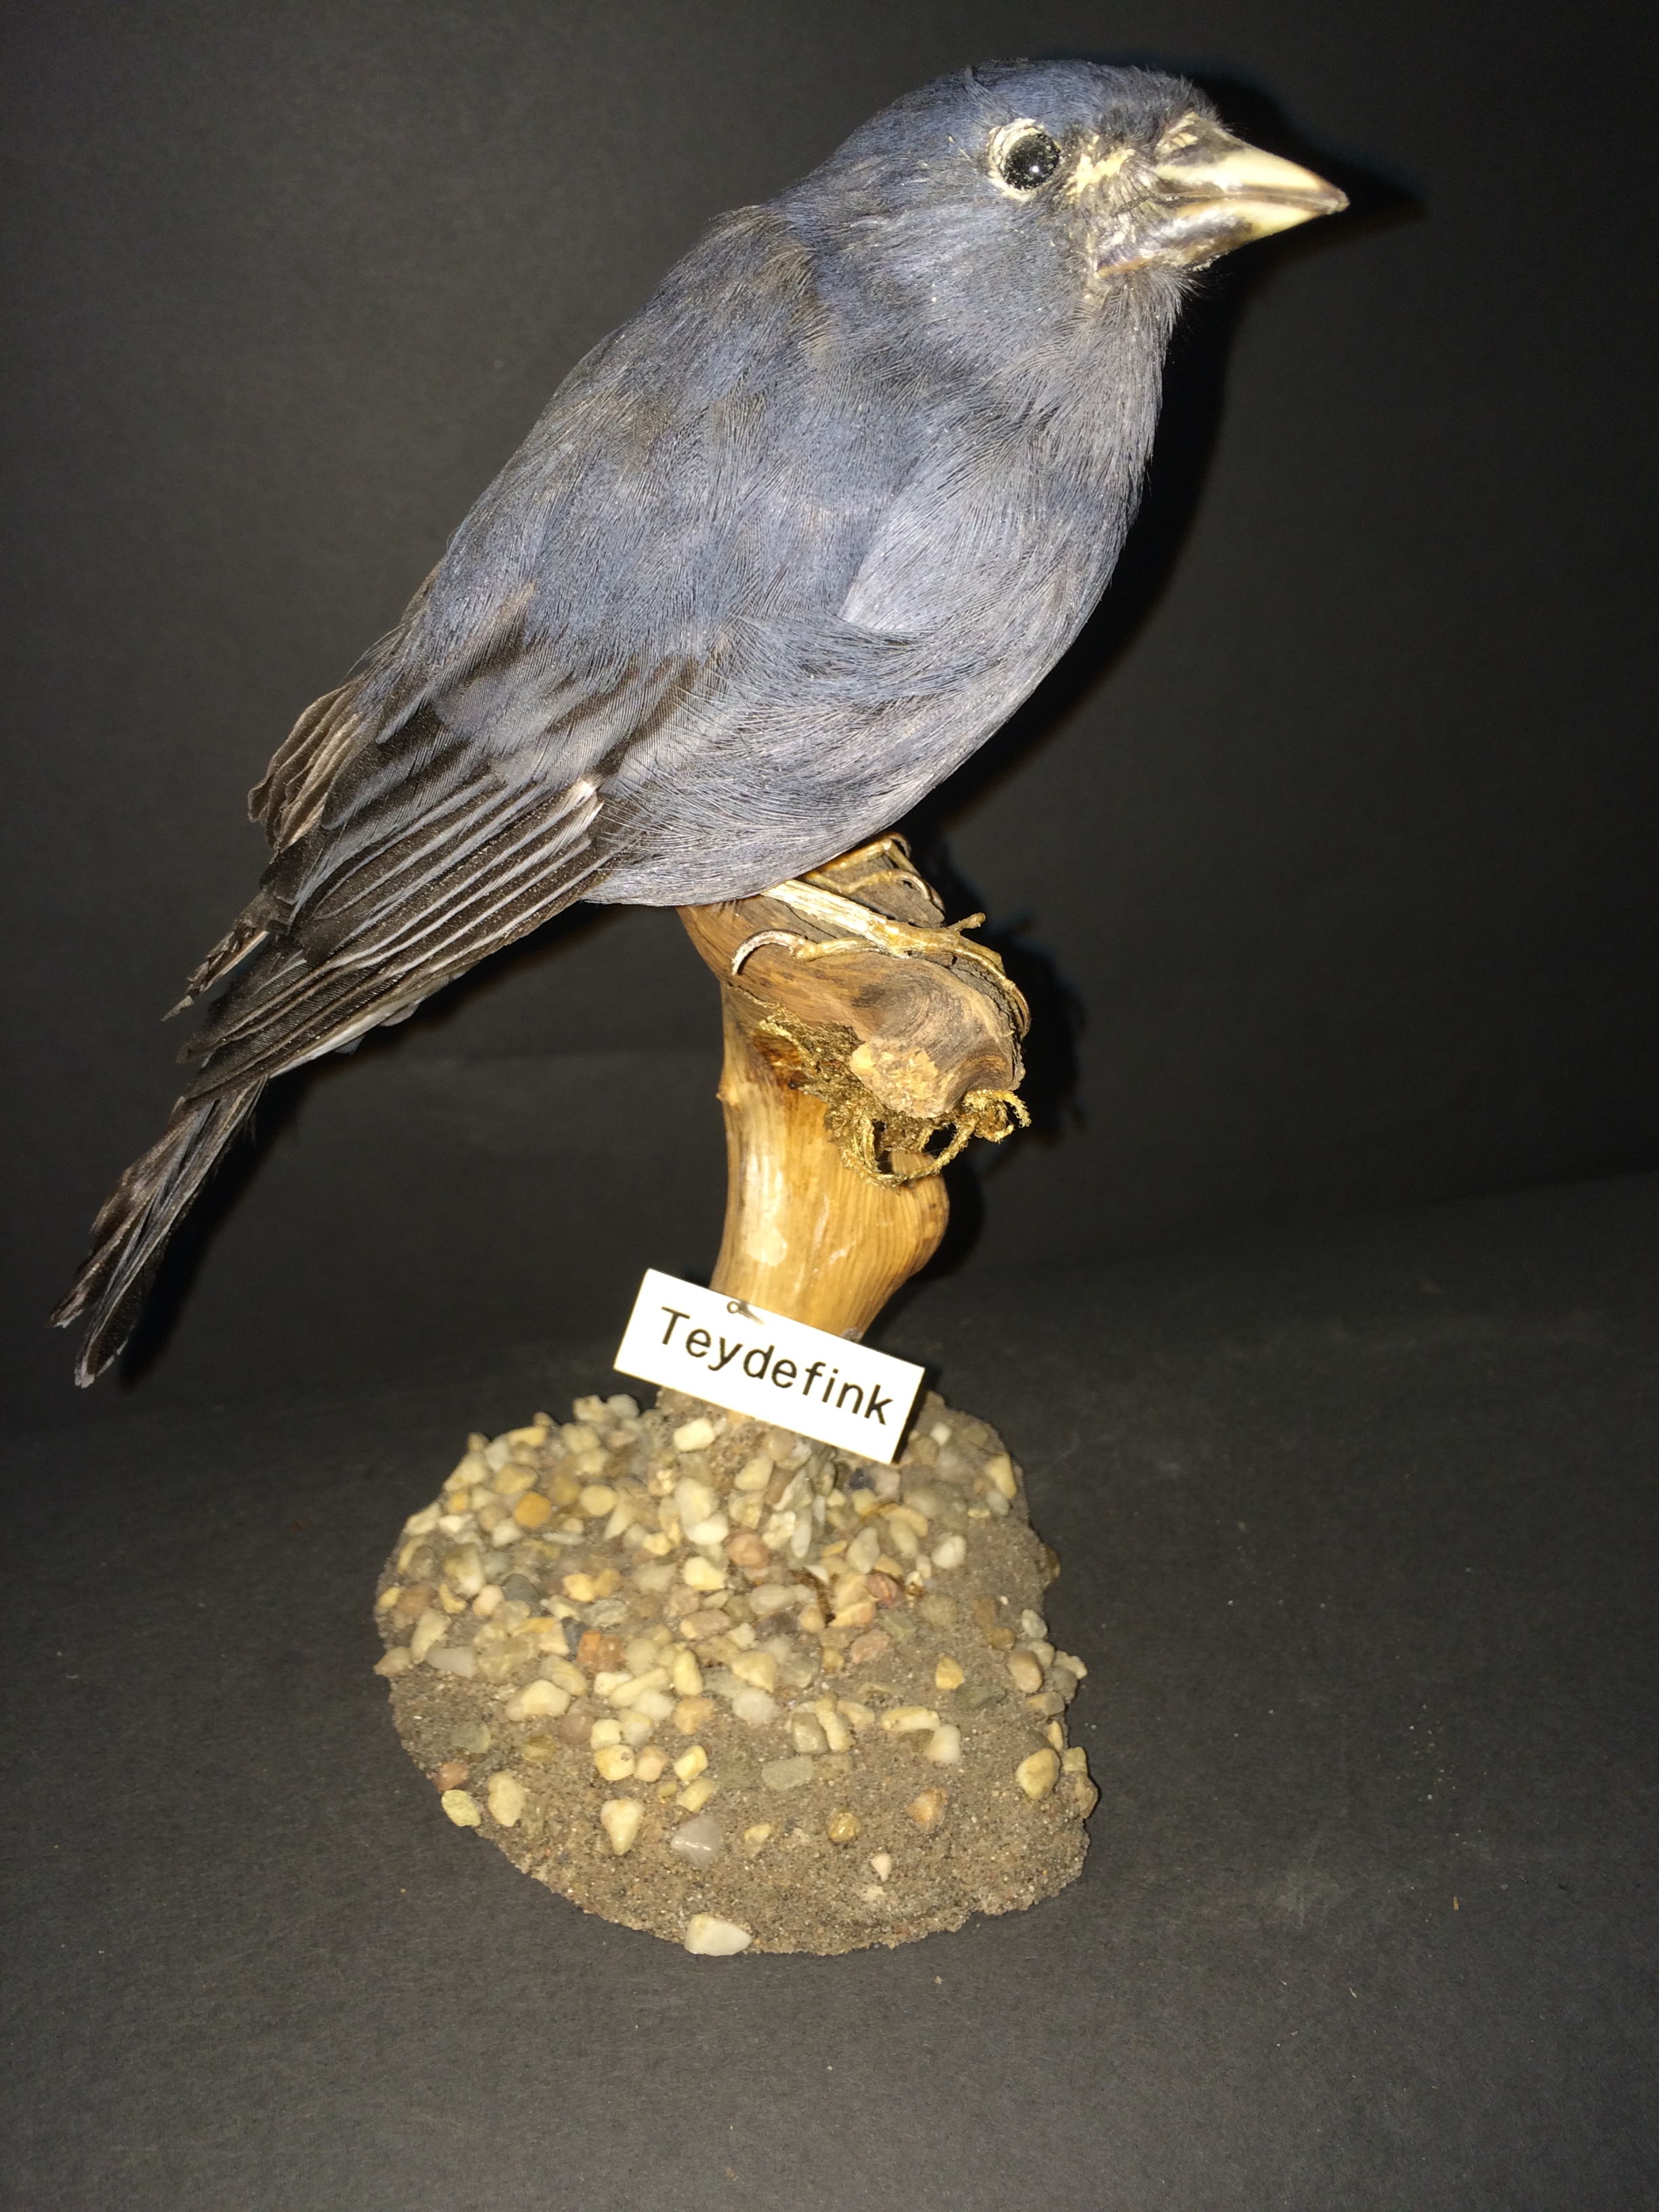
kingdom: Animalia
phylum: Chordata
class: Aves
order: Passeriformes
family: Fringillidae
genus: Fringilla
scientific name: Fringilla teydea
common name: Blue chaffinch
